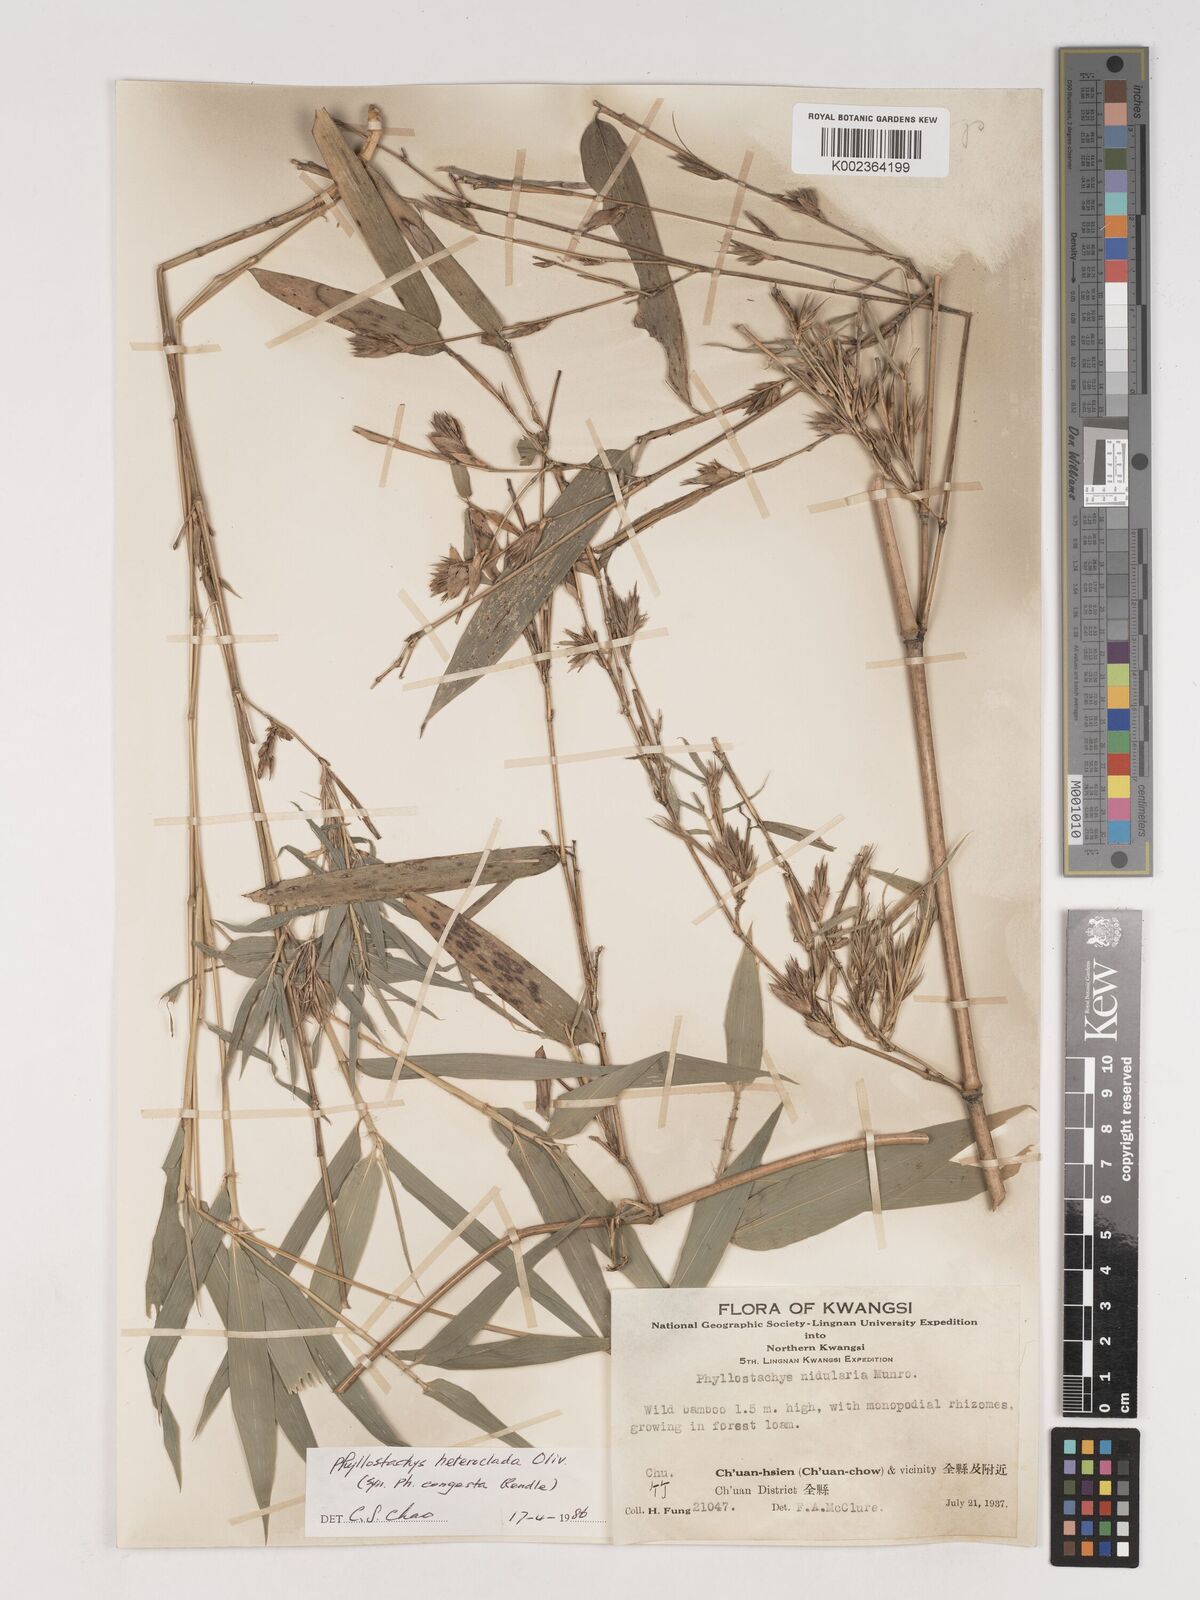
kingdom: Plantae
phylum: Tracheophyta
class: Liliopsida
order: Poales
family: Poaceae
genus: Phyllostachys
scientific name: Phyllostachys heteroclada
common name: Fishscale bamboo
